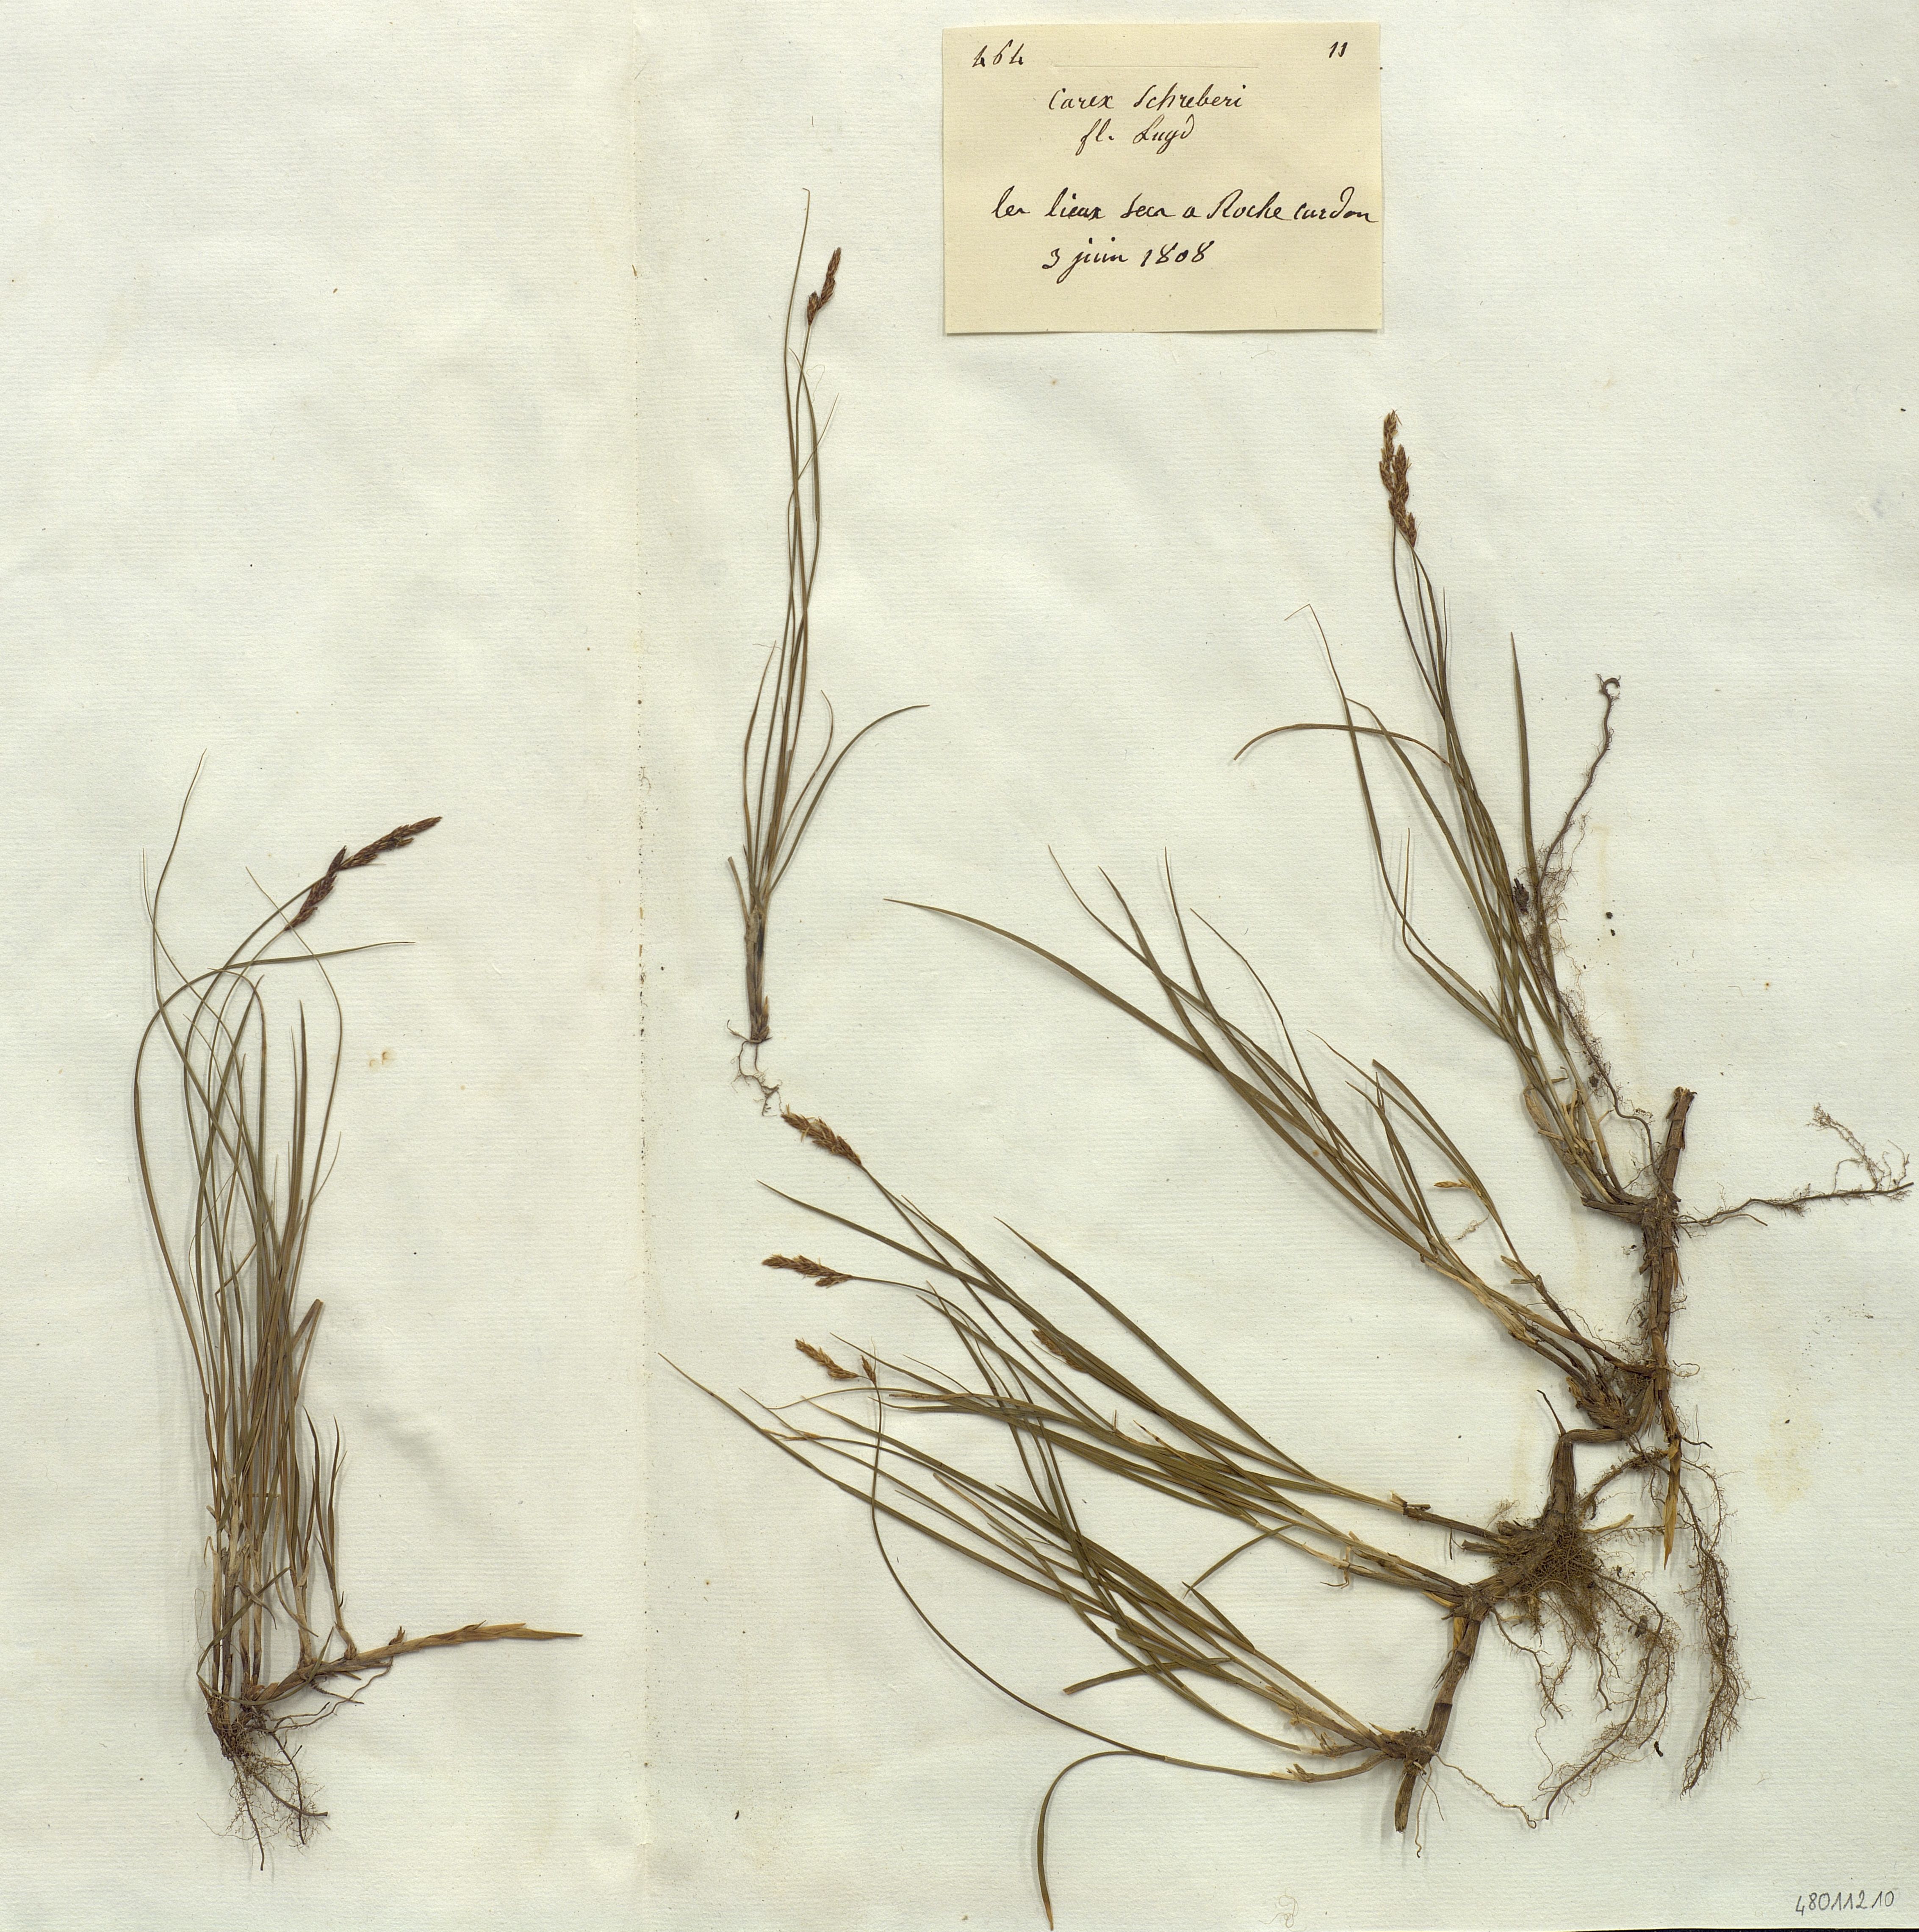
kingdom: Plantae
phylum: Tracheophyta
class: Liliopsida
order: Poales
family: Cyperaceae
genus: Carex
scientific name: Carex
